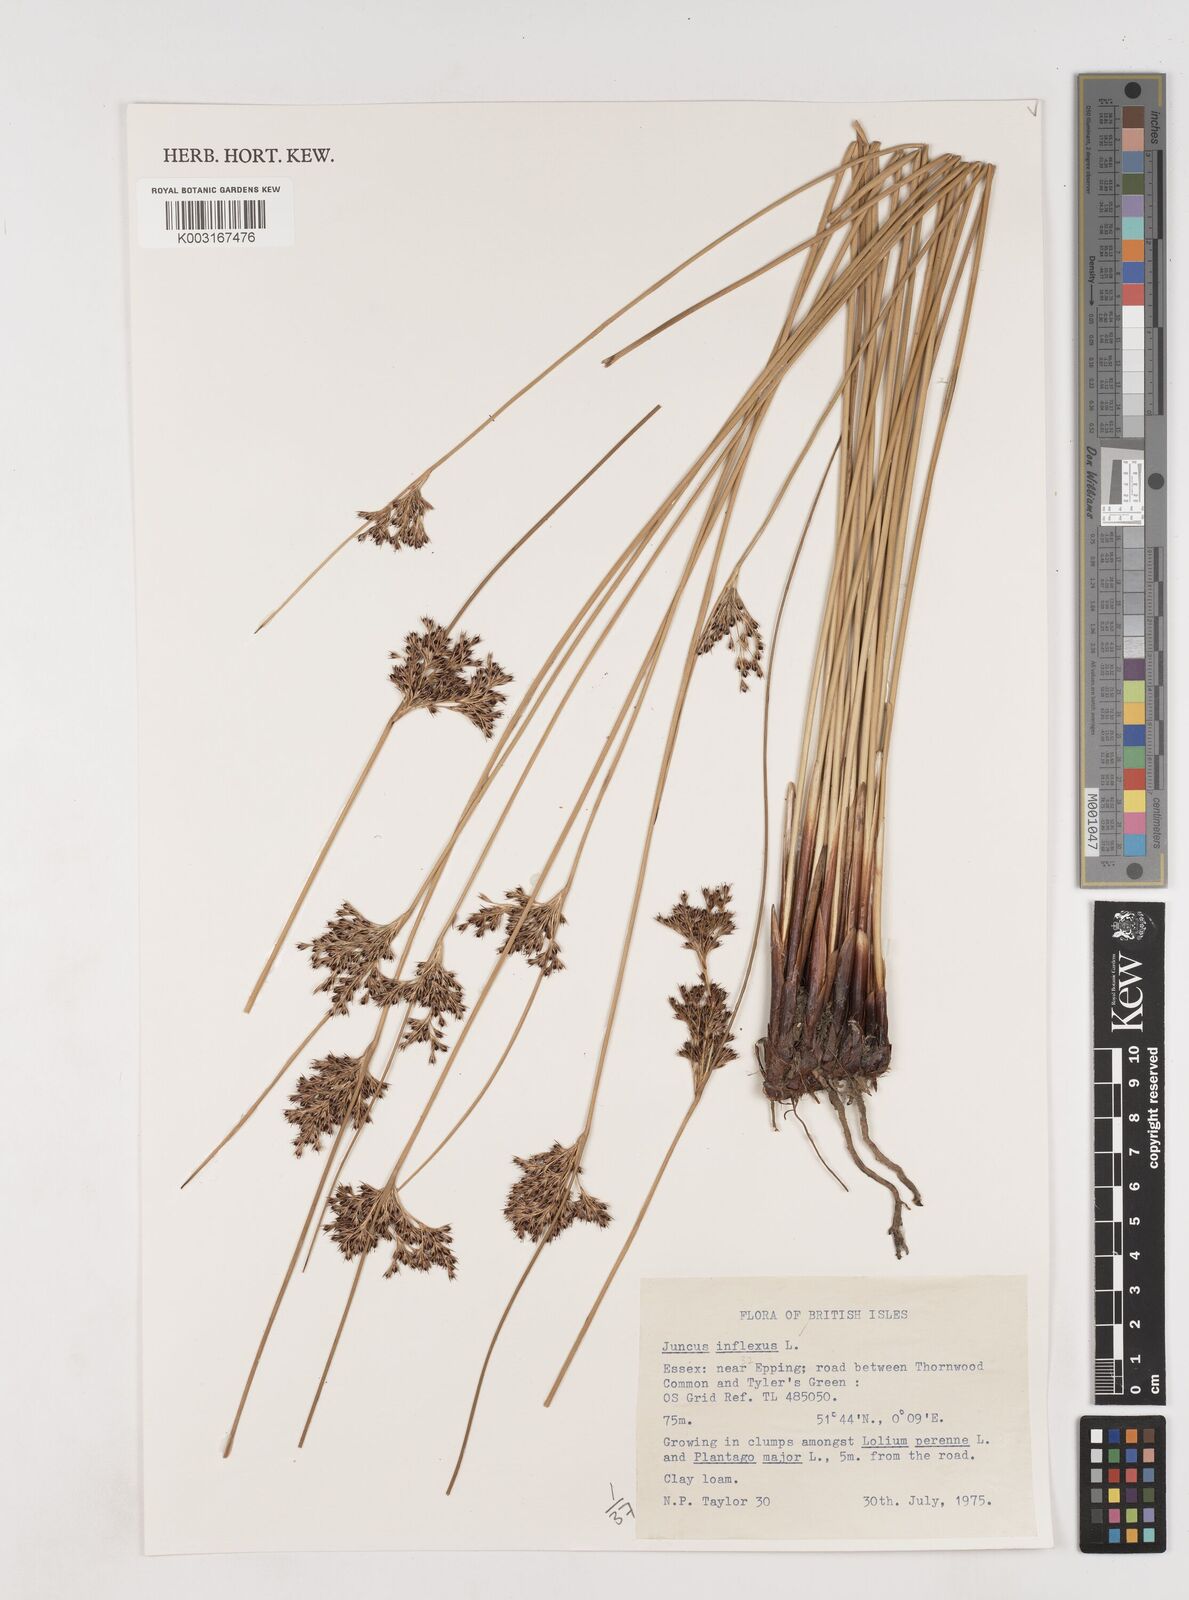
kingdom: Plantae
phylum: Tracheophyta
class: Liliopsida
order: Poales
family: Juncaceae
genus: Juncus
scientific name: Juncus inflexus
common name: Hard rush
